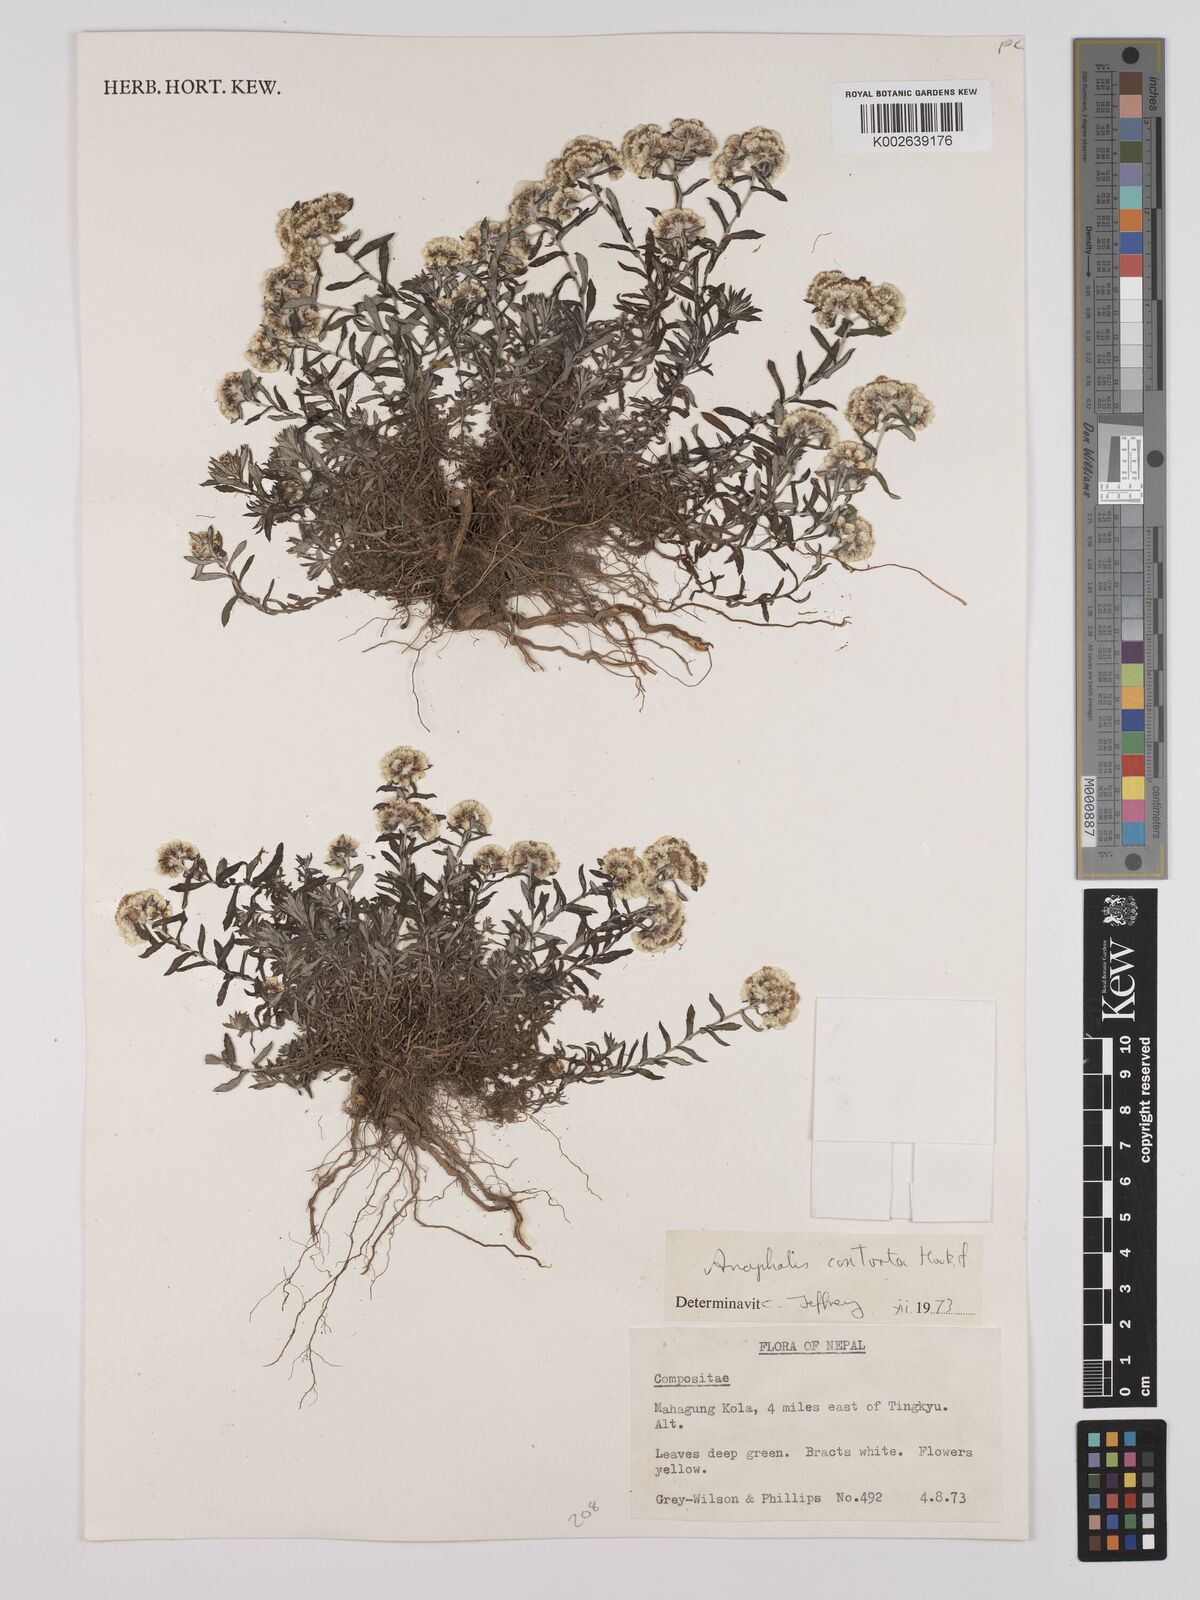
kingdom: Plantae
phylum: Tracheophyta
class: Magnoliopsida
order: Asterales
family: Asteraceae
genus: Anaphalis
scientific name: Anaphalis contorta
